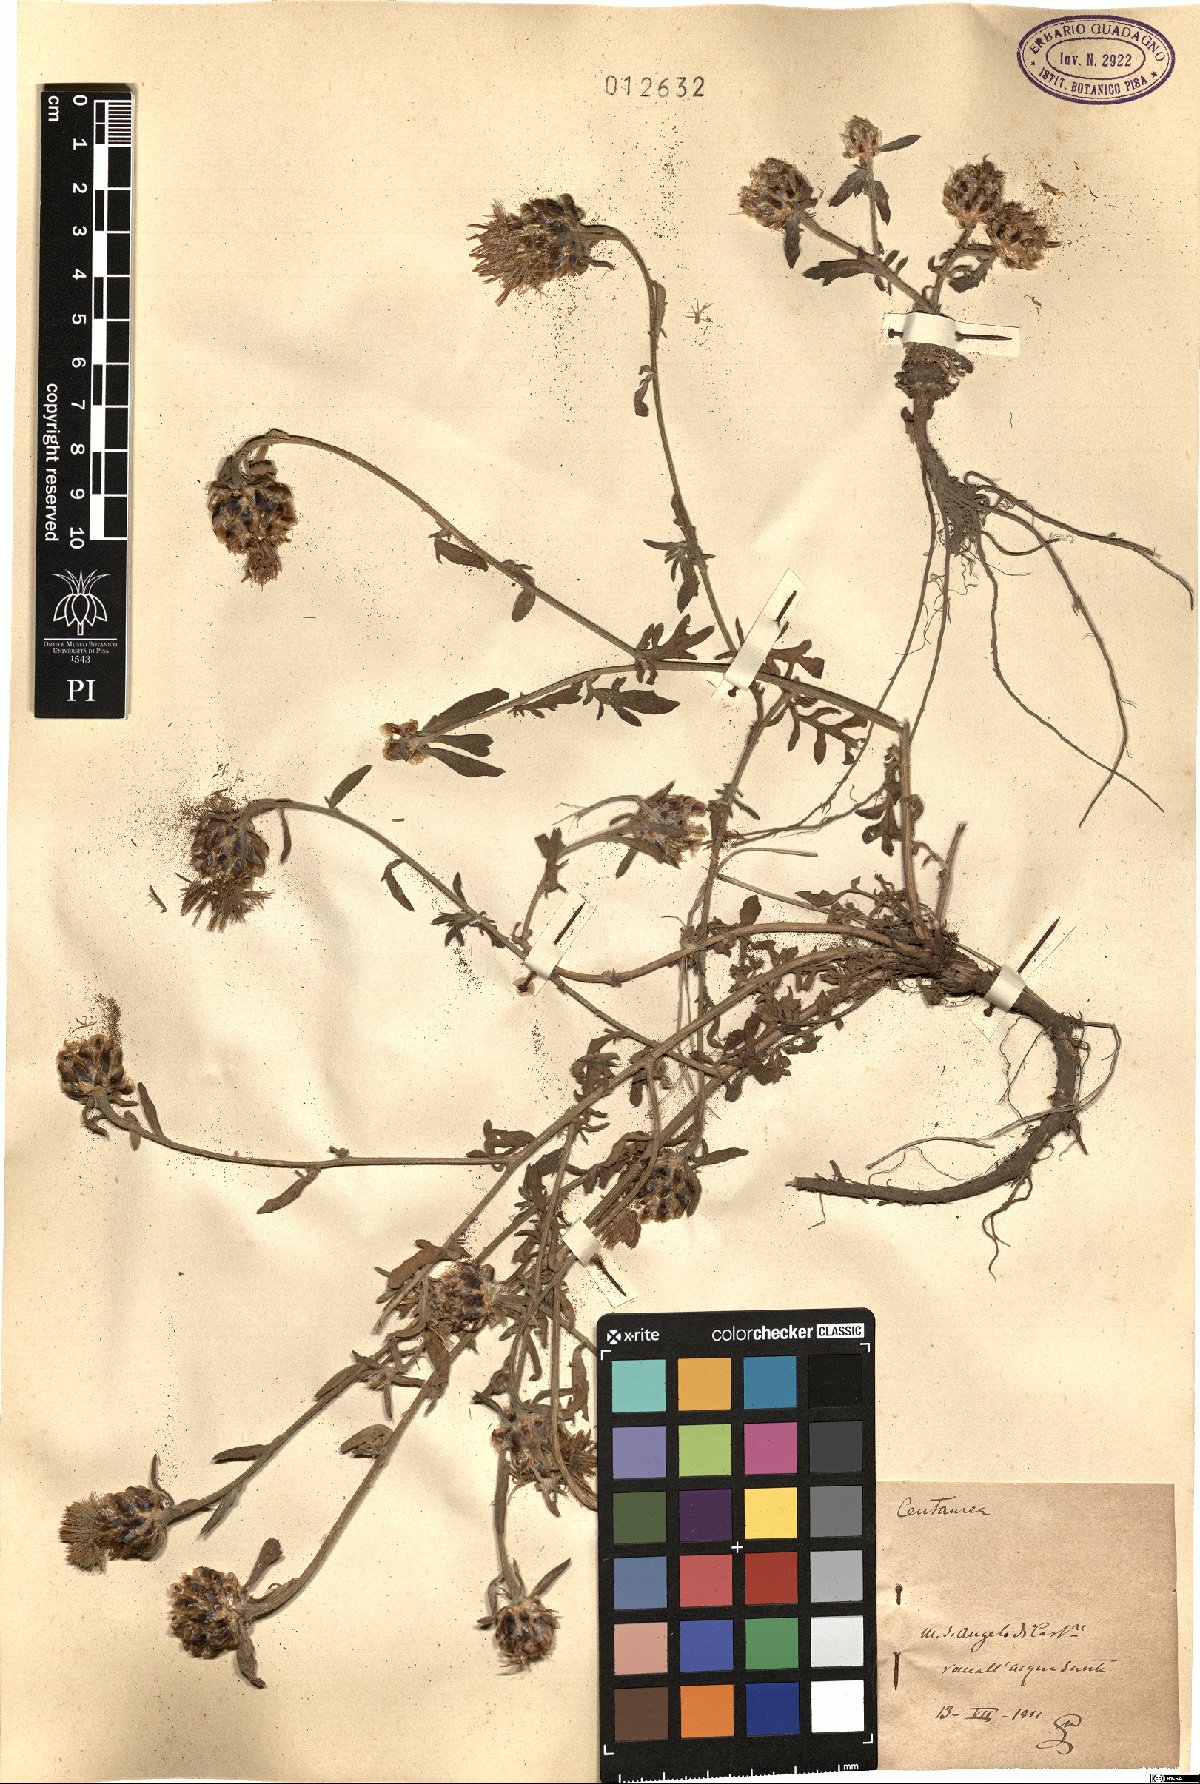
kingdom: Plantae
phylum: Tracheophyta
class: Magnoliopsida
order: Asterales
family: Asteraceae
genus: Centaurea
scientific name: Centaurea
